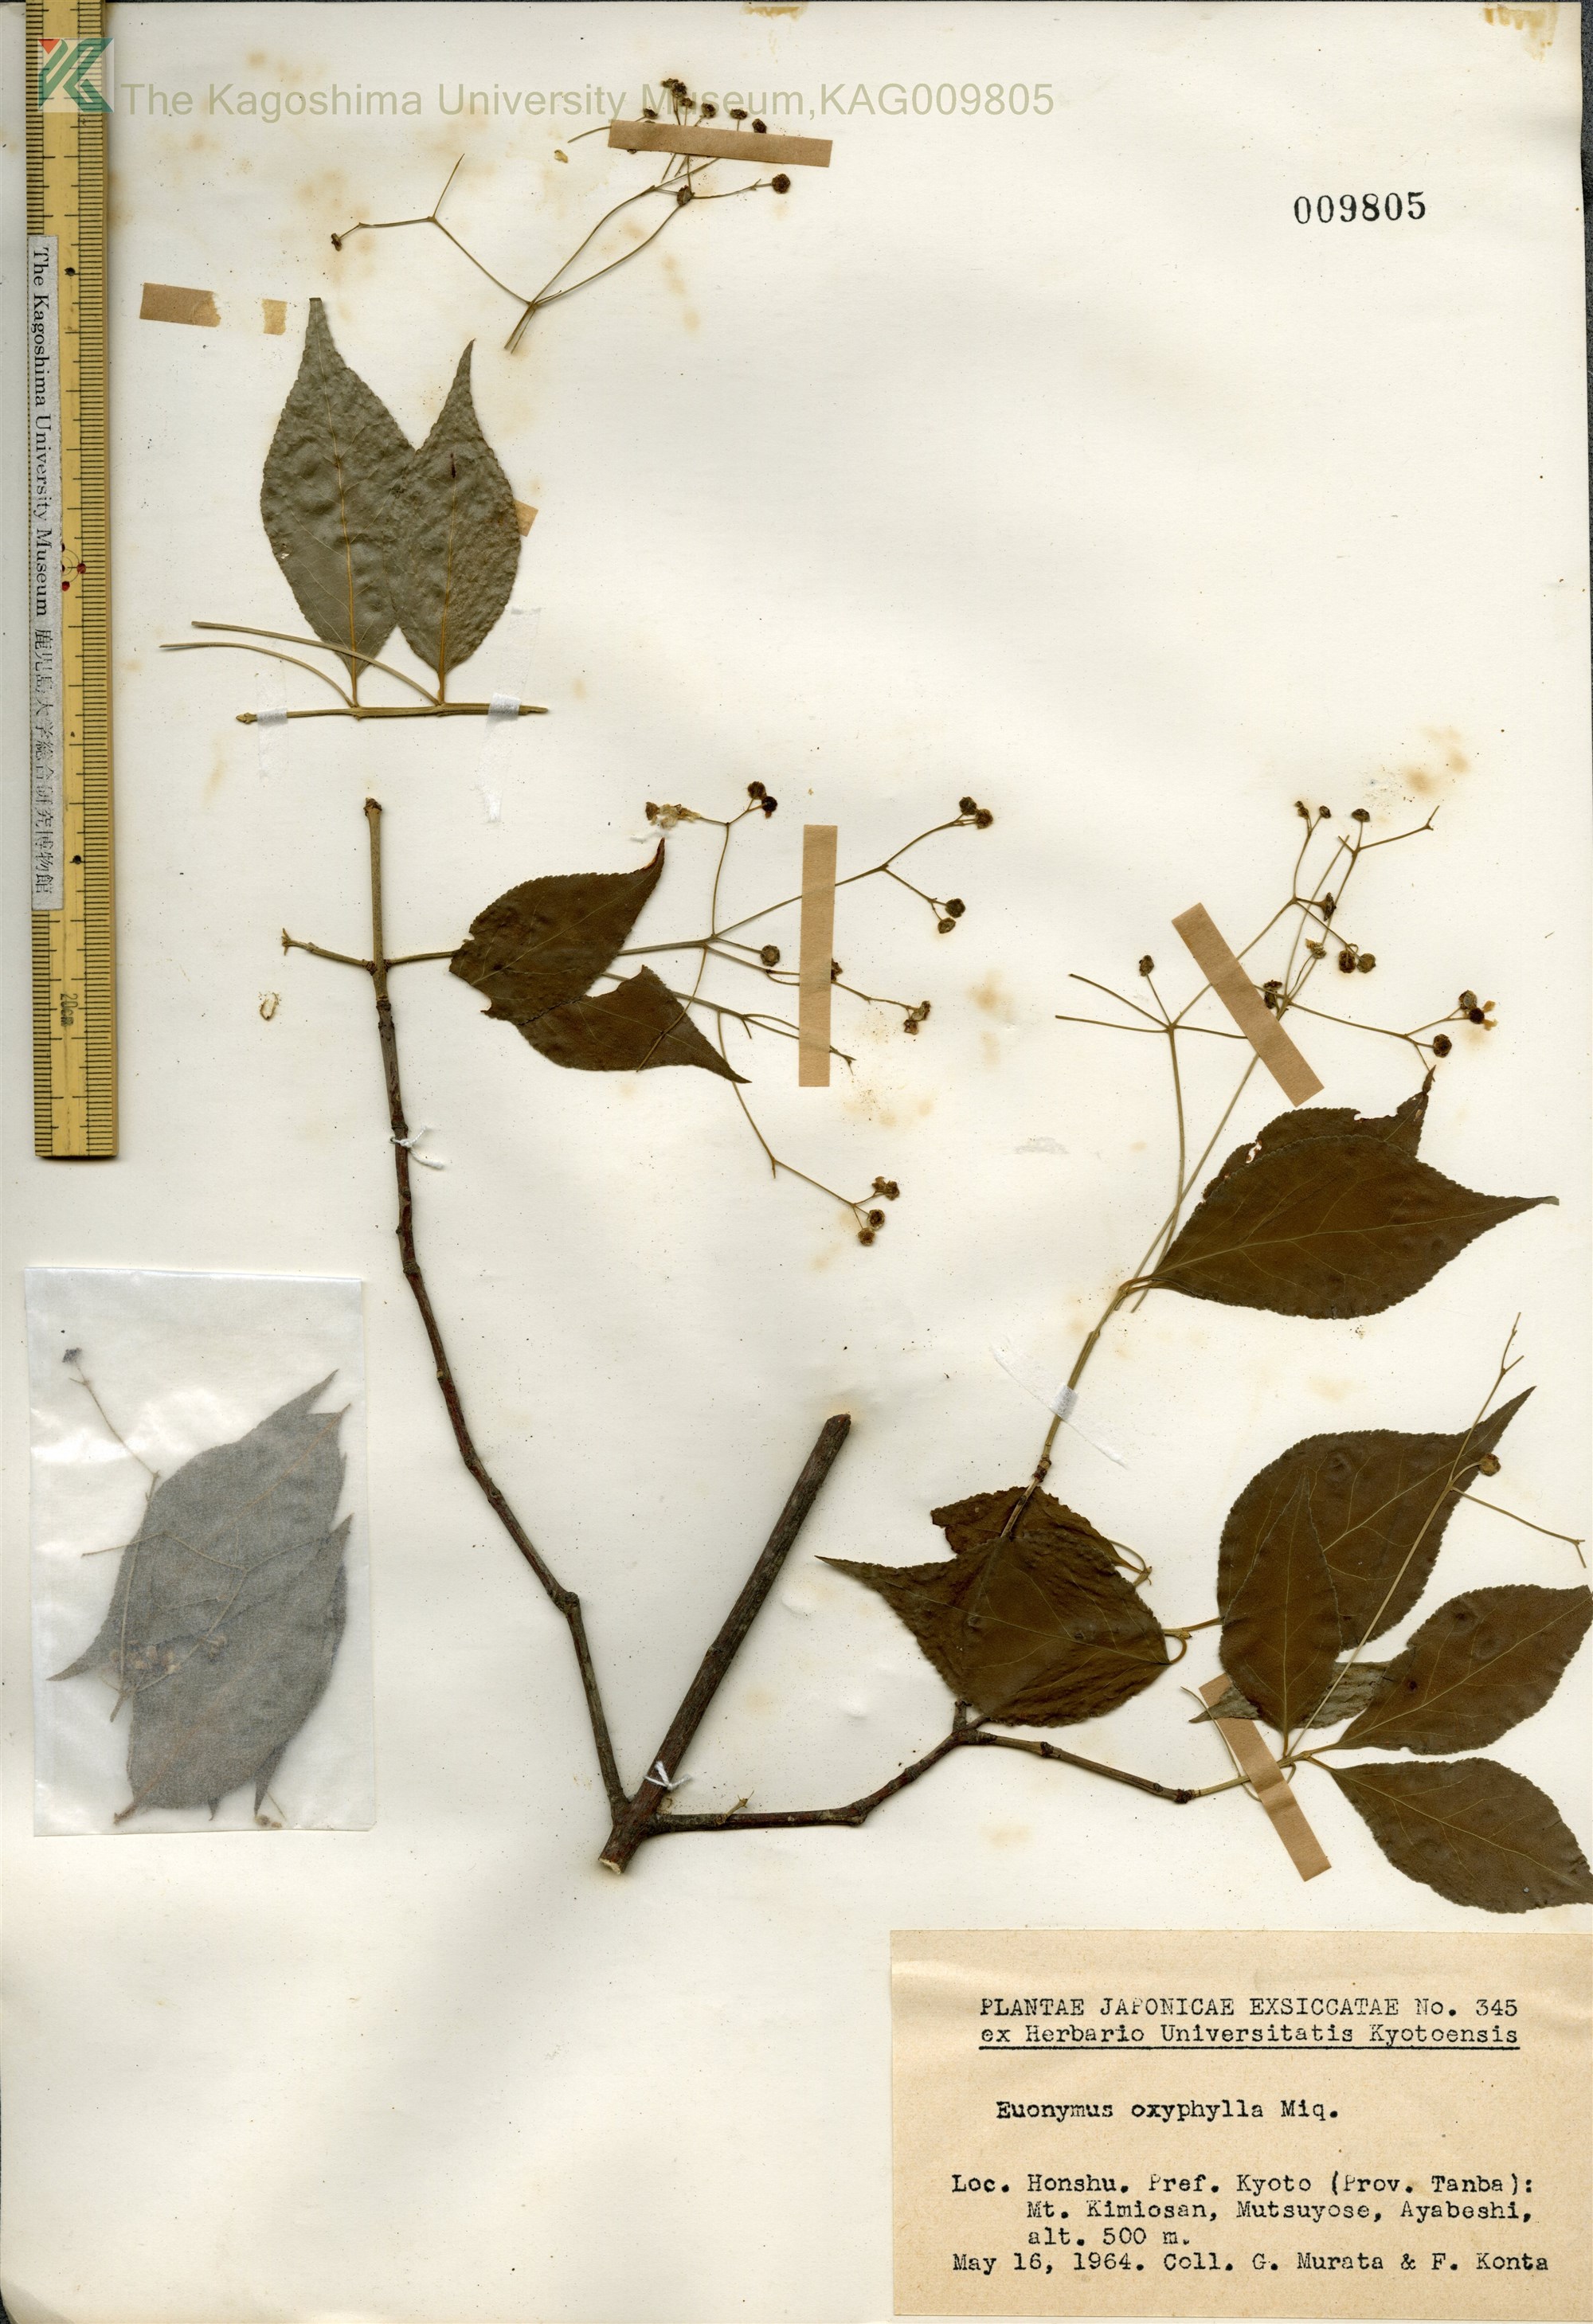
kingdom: Plantae
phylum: Tracheophyta
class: Magnoliopsida
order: Celastrales
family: Celastraceae
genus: Euonymus
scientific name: Euonymus oxyphyllus
